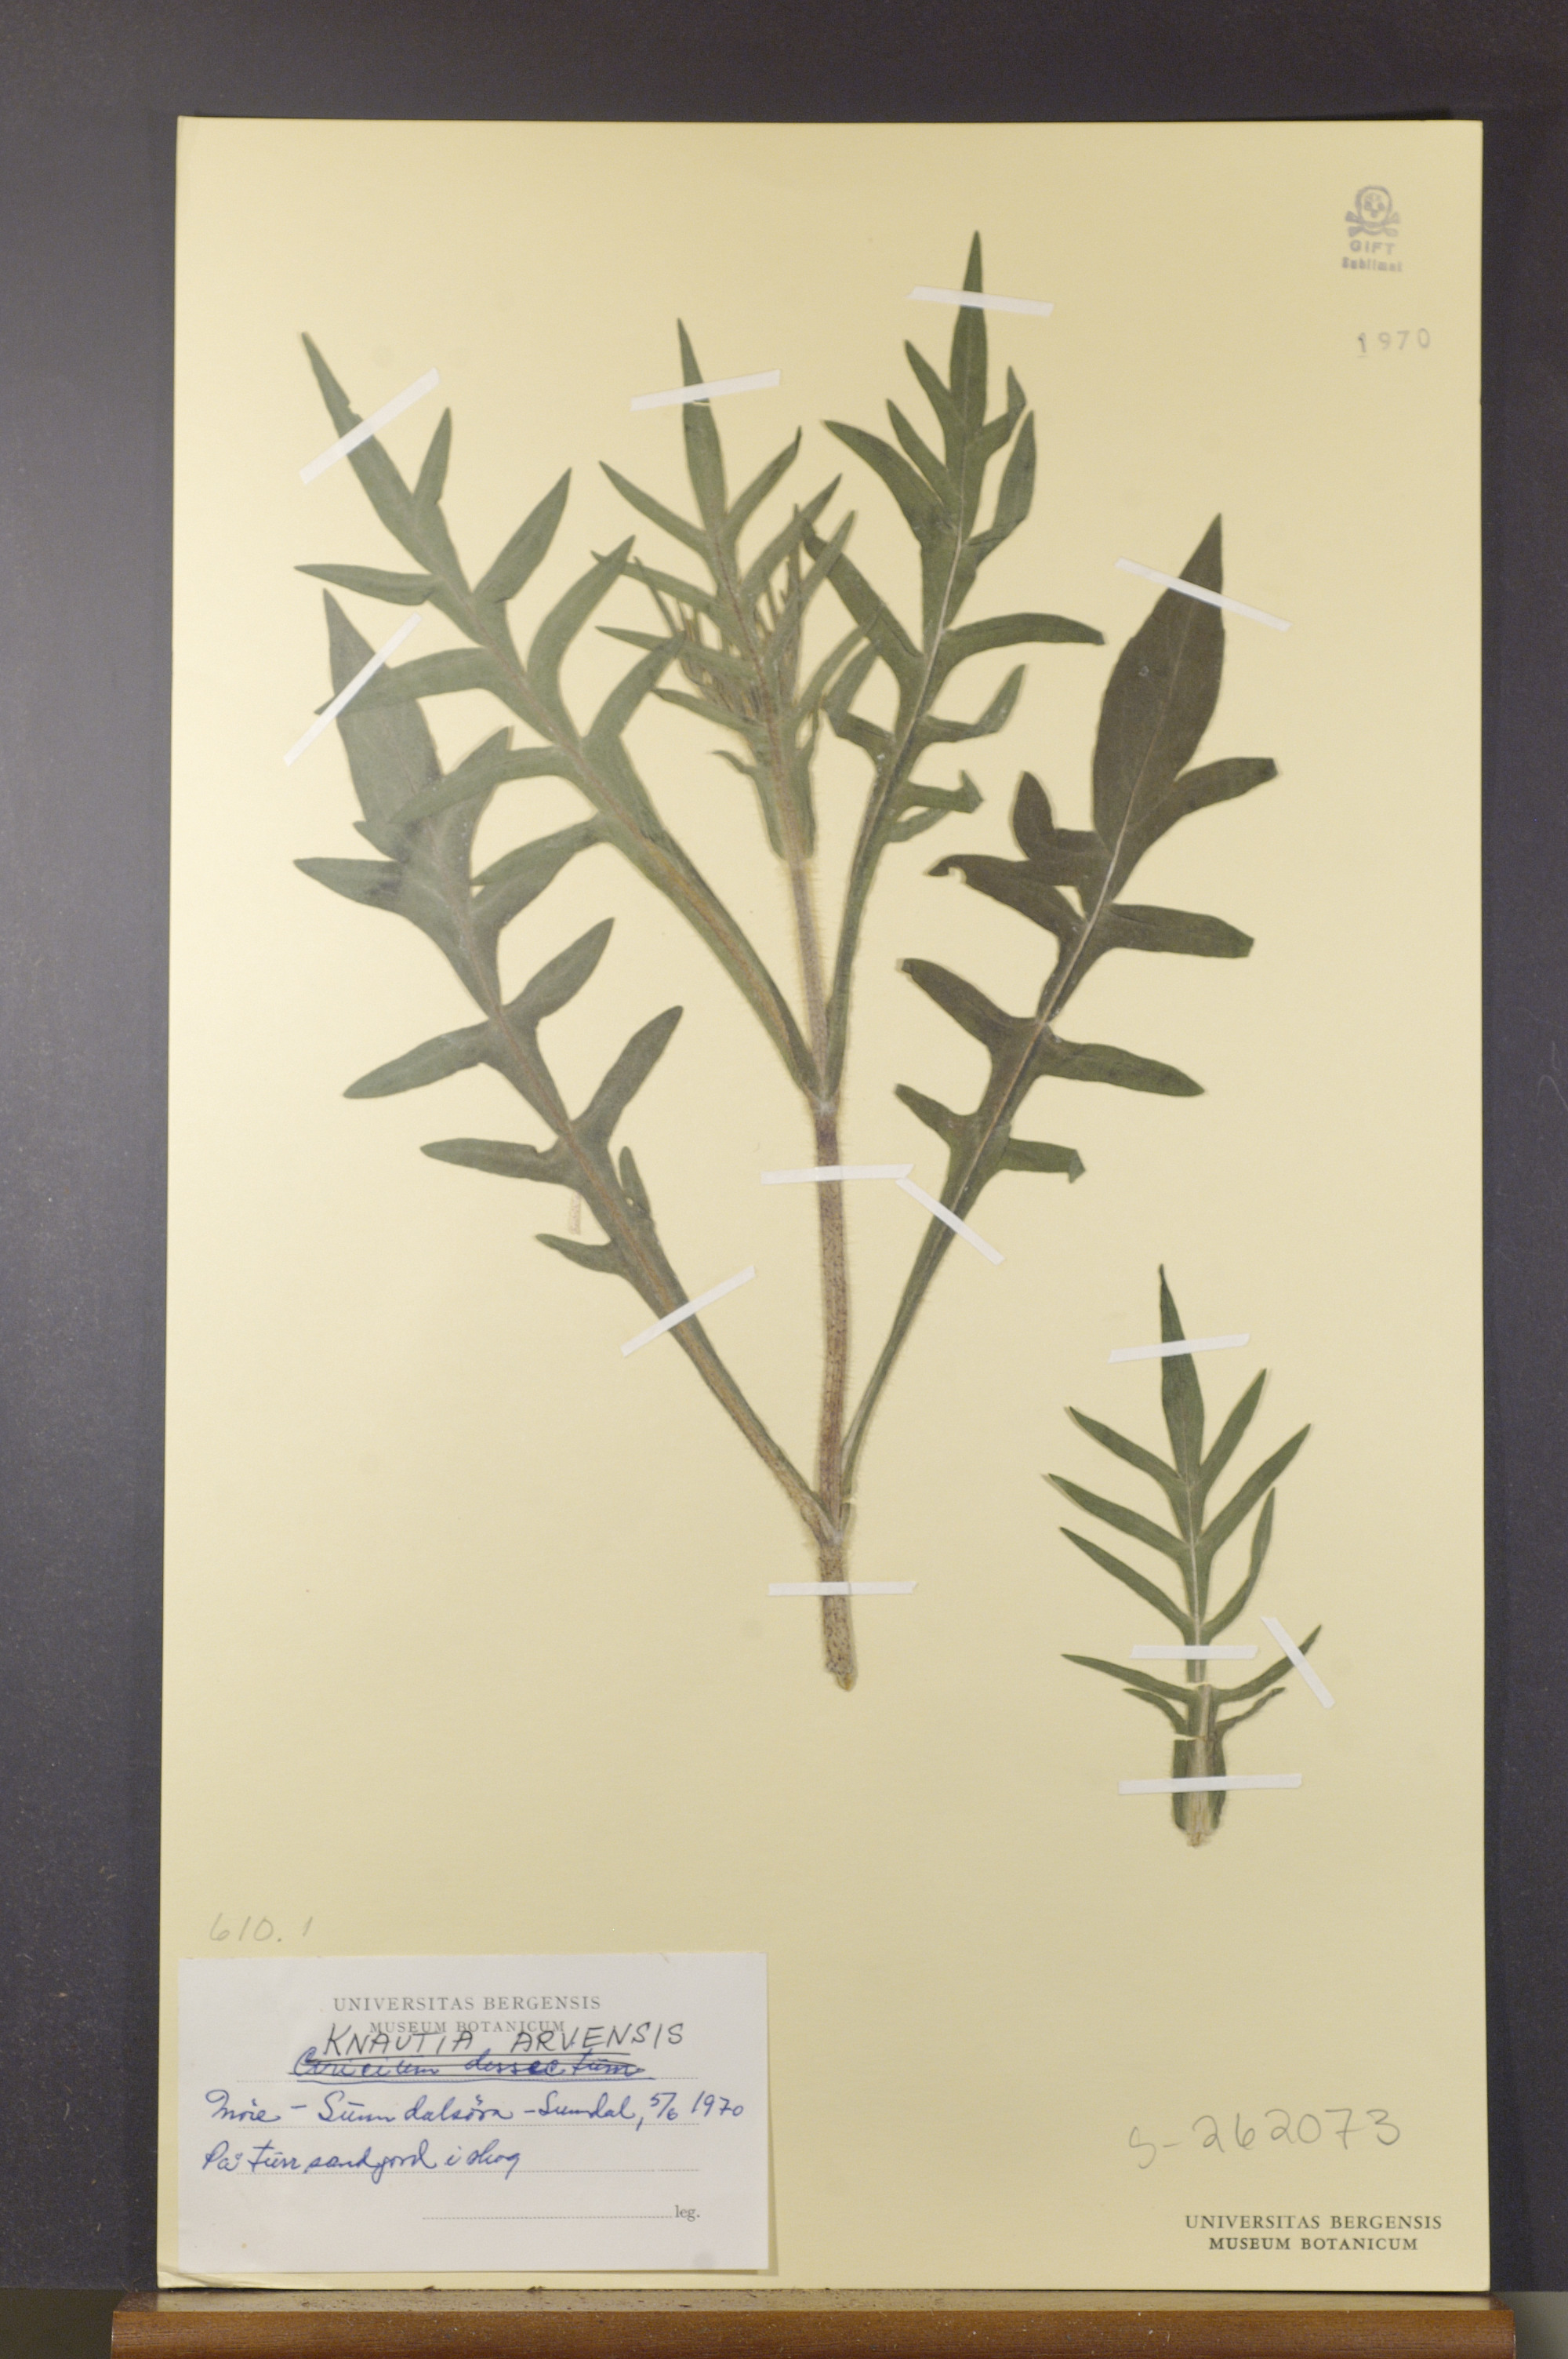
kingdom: Plantae
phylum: Tracheophyta
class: Magnoliopsida
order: Dipsacales
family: Caprifoliaceae
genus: Knautia
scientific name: Knautia arvensis
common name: Field scabiosa
